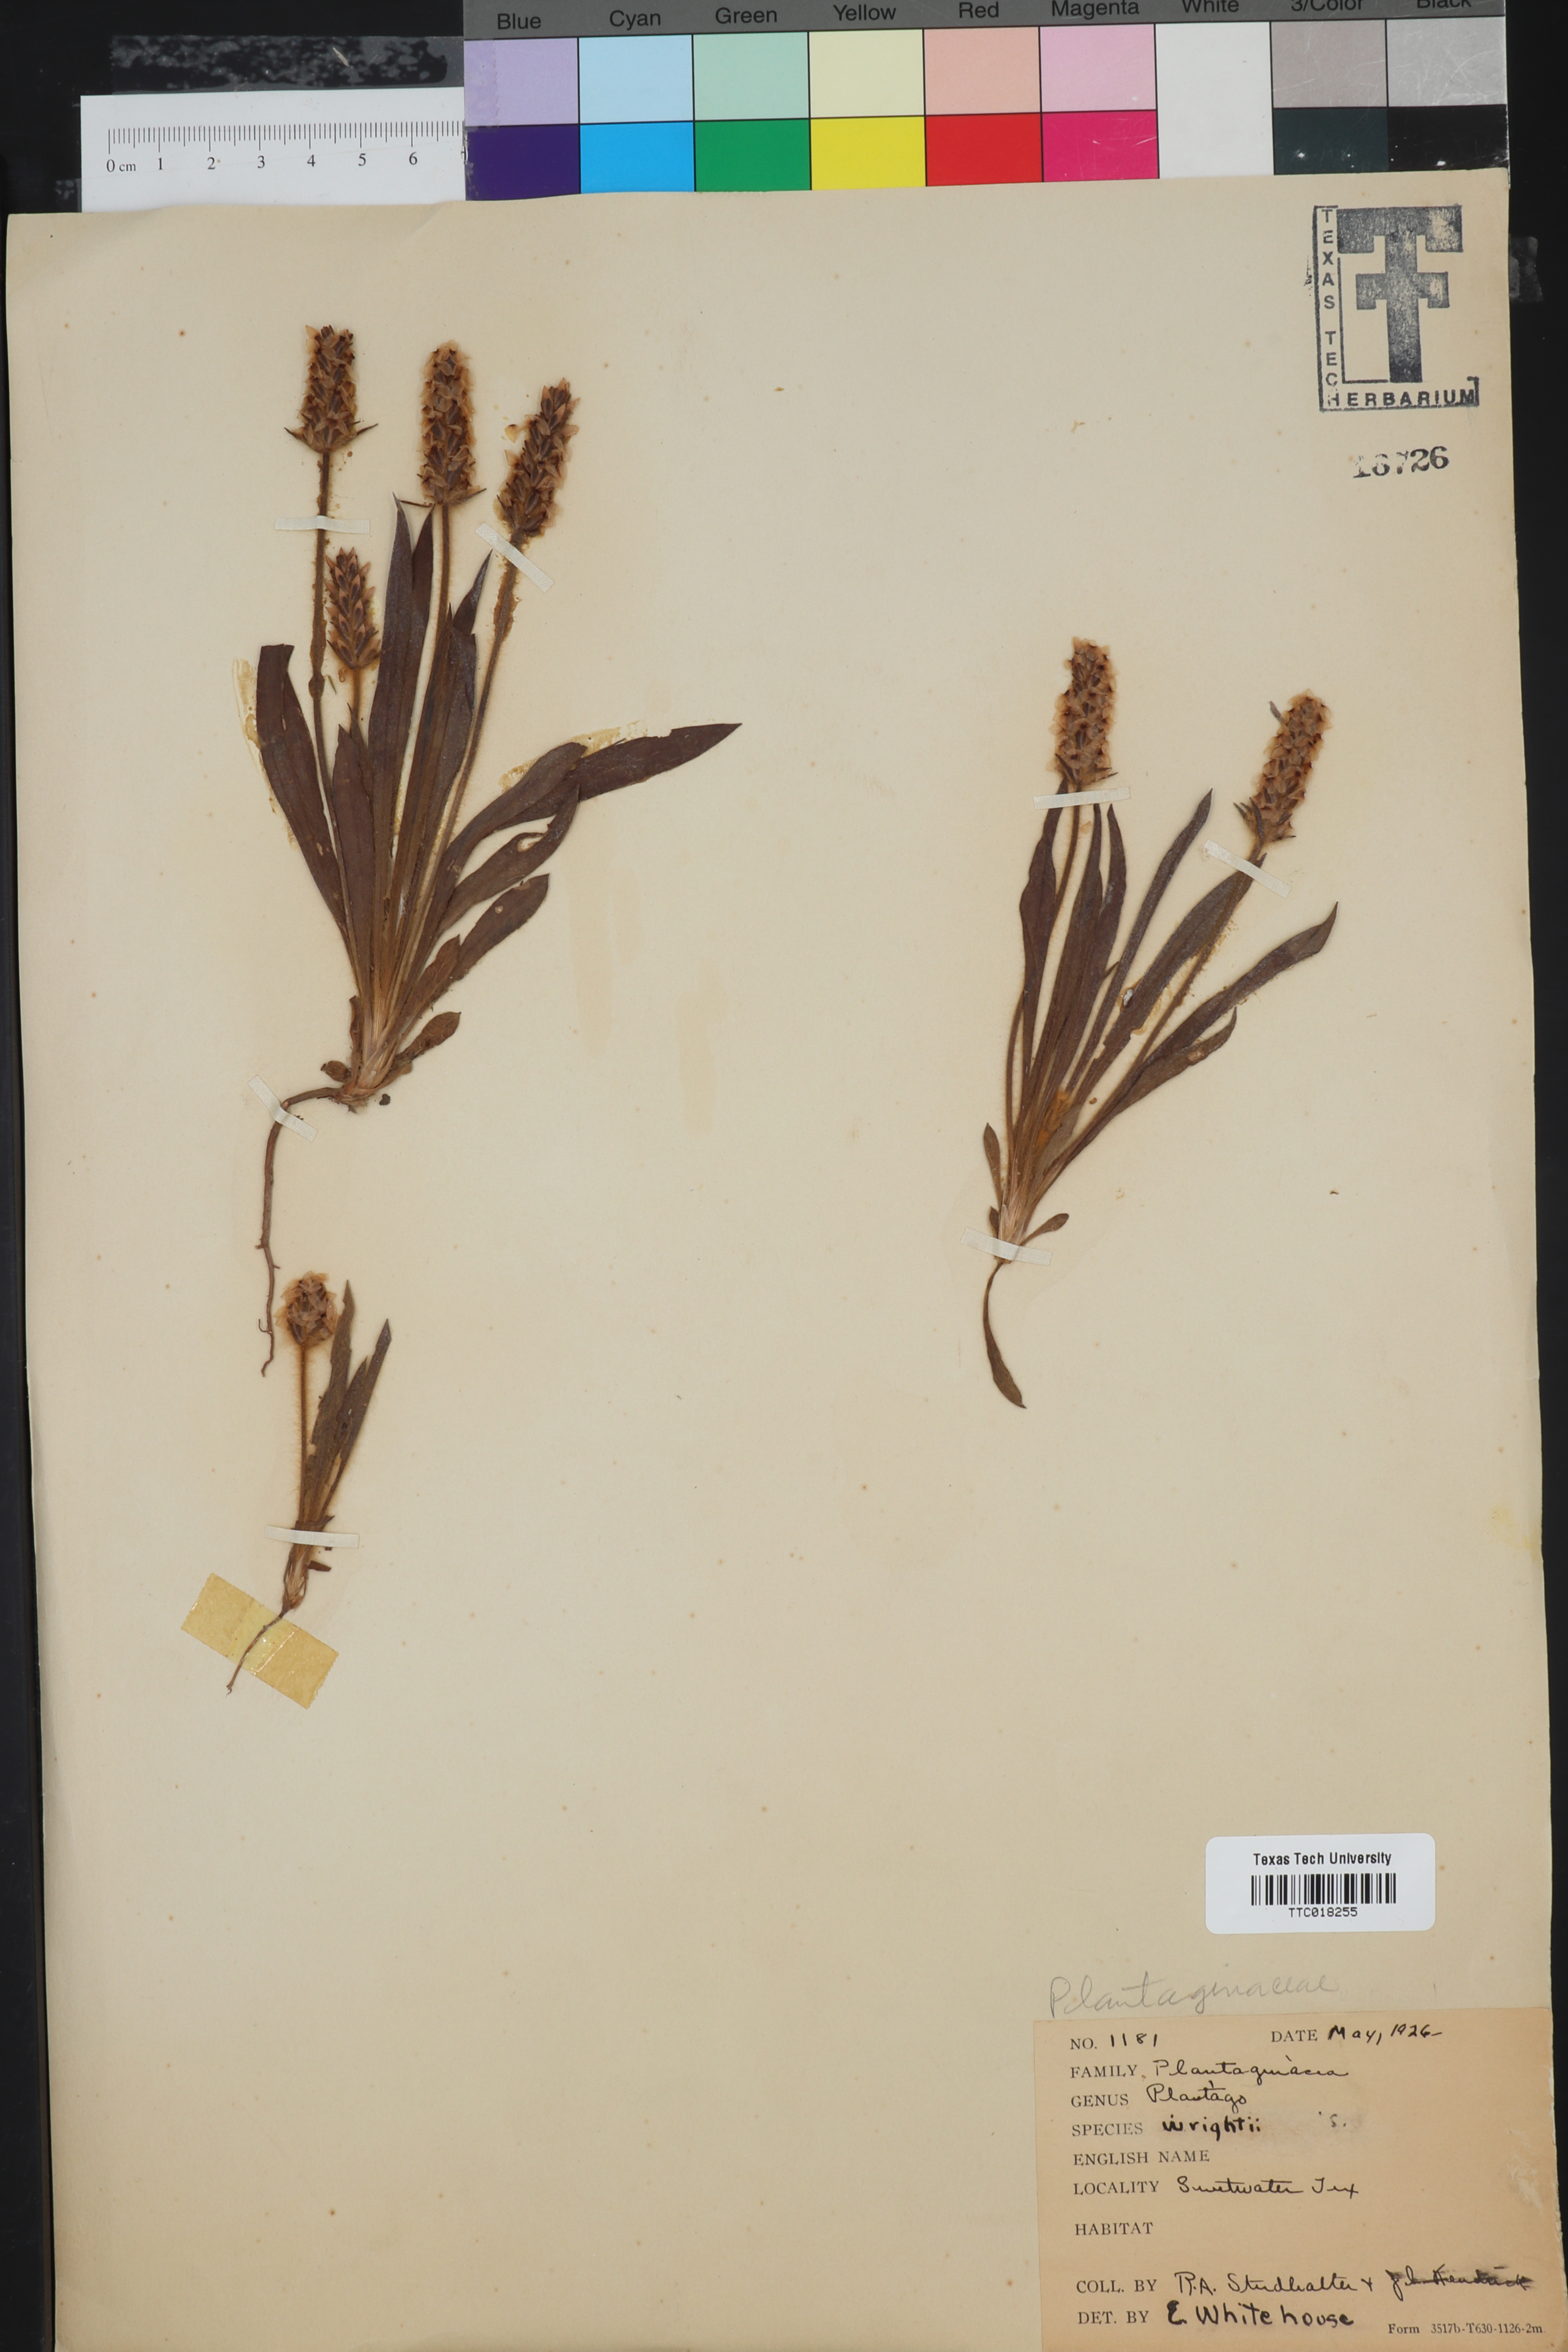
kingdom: Plantae
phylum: Tracheophyta
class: Magnoliopsida
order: Lamiales
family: Plantaginaceae
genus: Plantago
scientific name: Plantago wrightiana
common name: Wright's plantain
